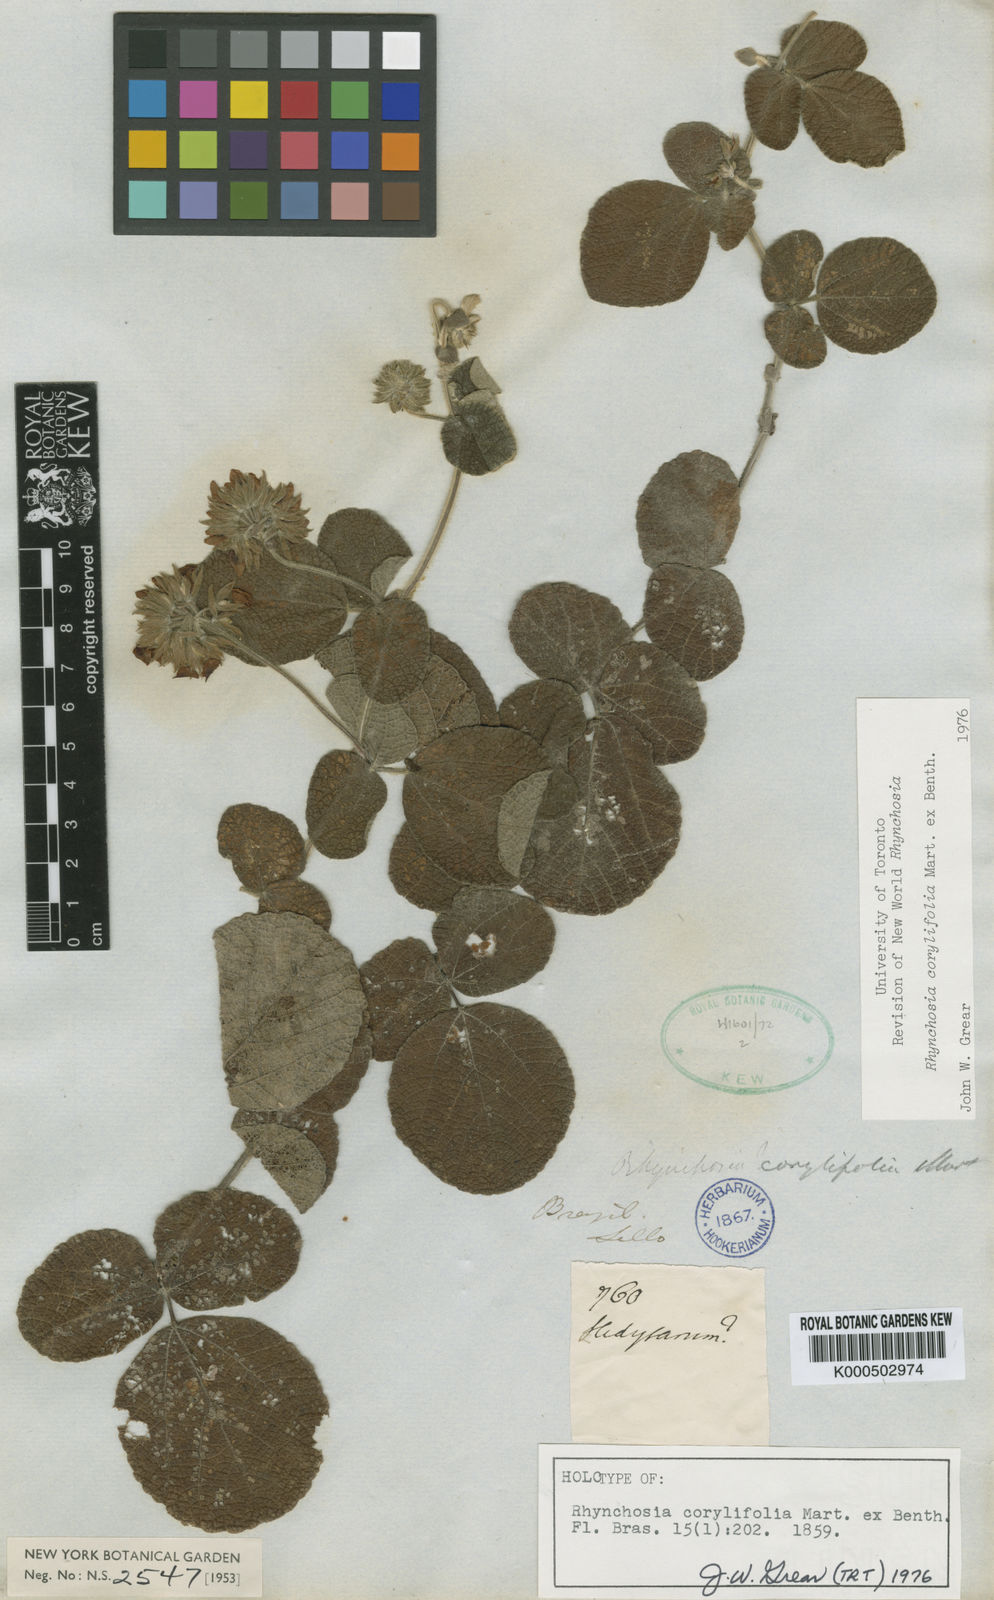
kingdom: Plantae
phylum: Tracheophyta
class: Magnoliopsida
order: Fabales
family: Fabaceae
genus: Rhynchosia
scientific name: Rhynchosia corylifolia
